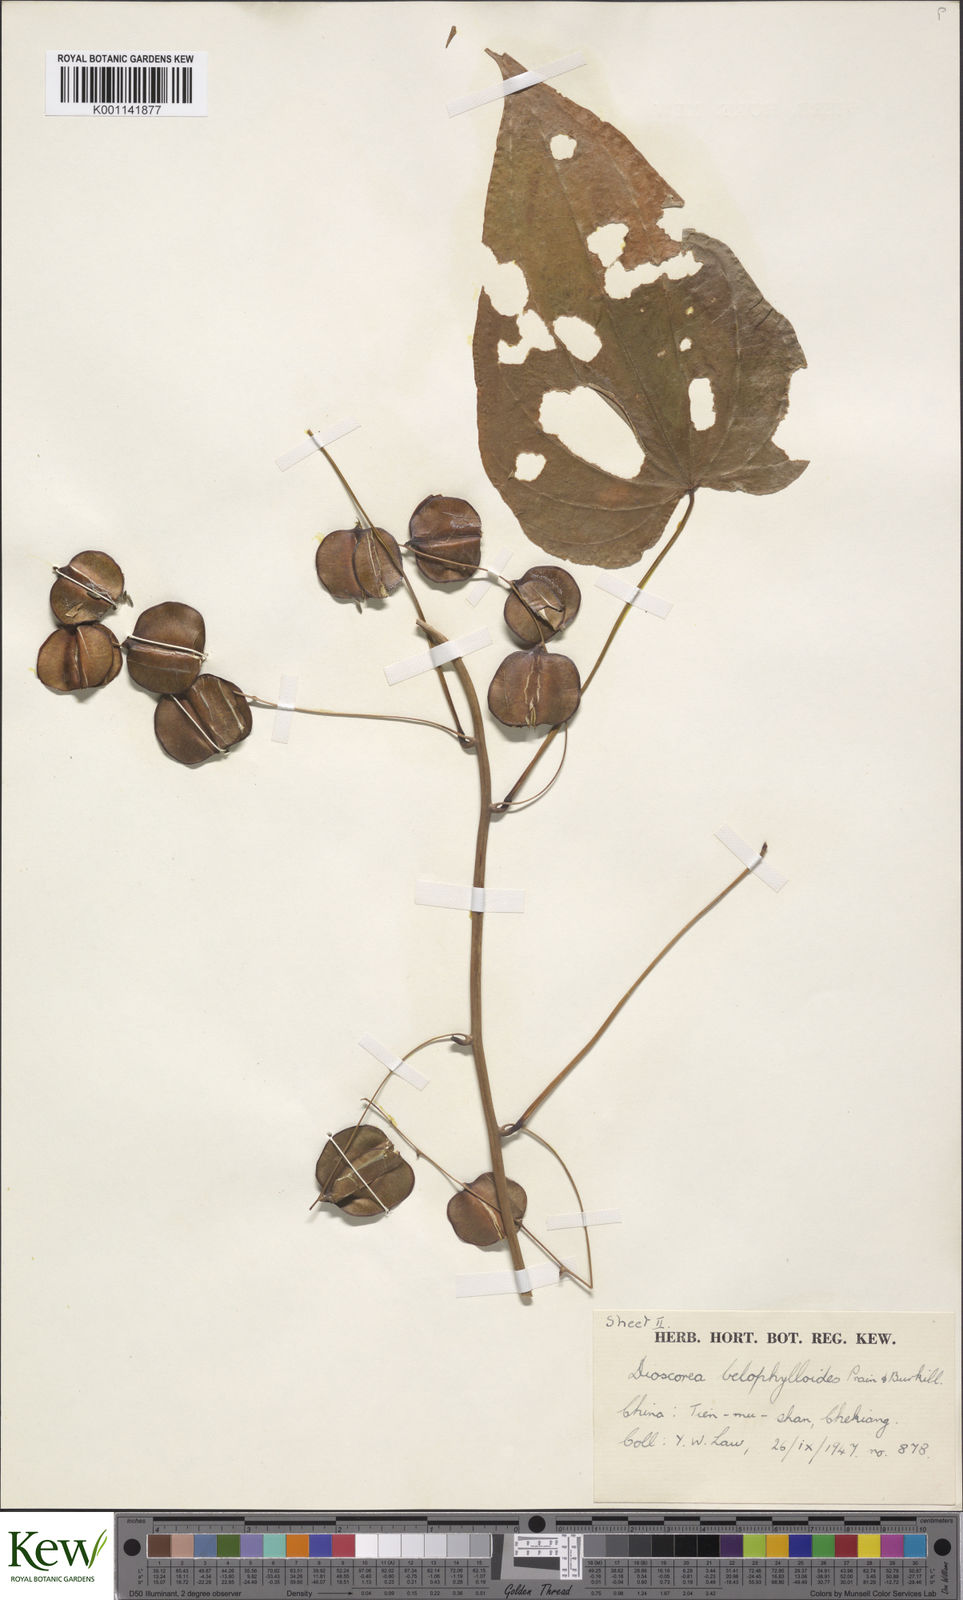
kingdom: Plantae
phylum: Tracheophyta
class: Liliopsida
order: Dioscoreales
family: Dioscoreaceae
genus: Dioscorea
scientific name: Dioscorea japonica
